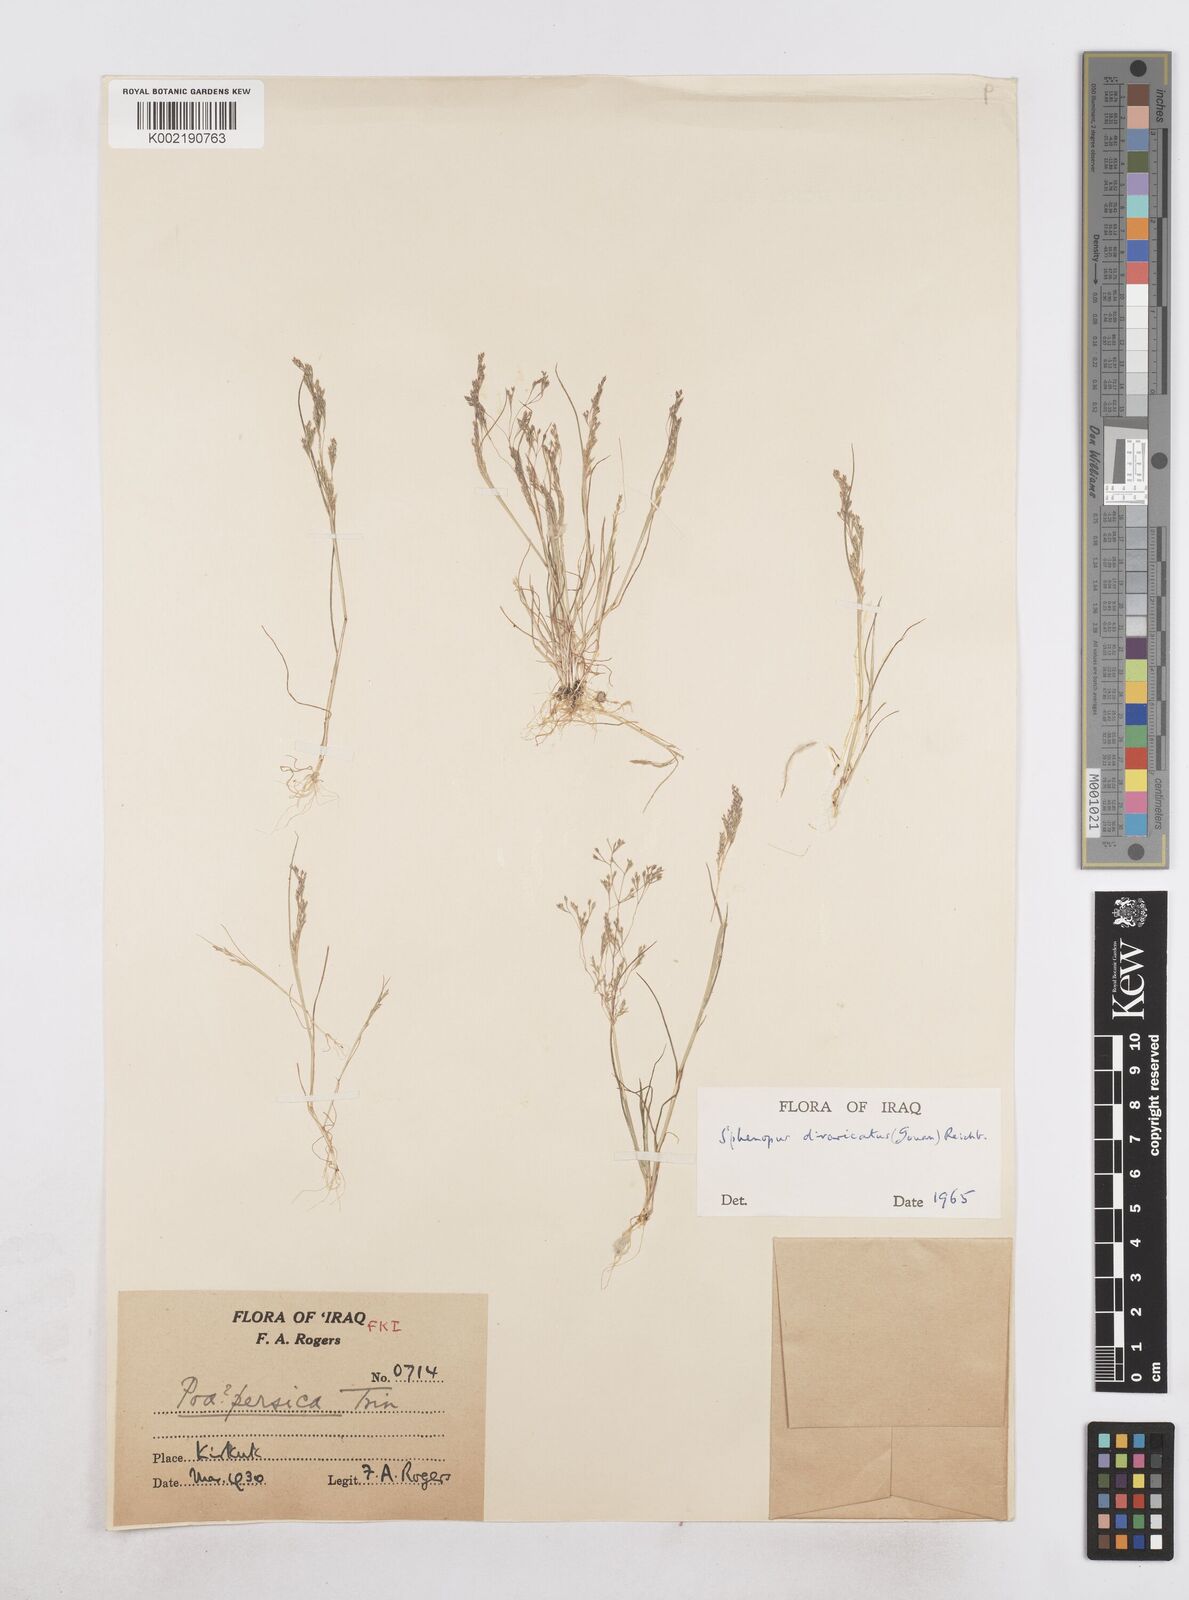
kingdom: Plantae
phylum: Tracheophyta
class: Liliopsida
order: Poales
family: Poaceae
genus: Sphenopus
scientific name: Sphenopus divaricatus
